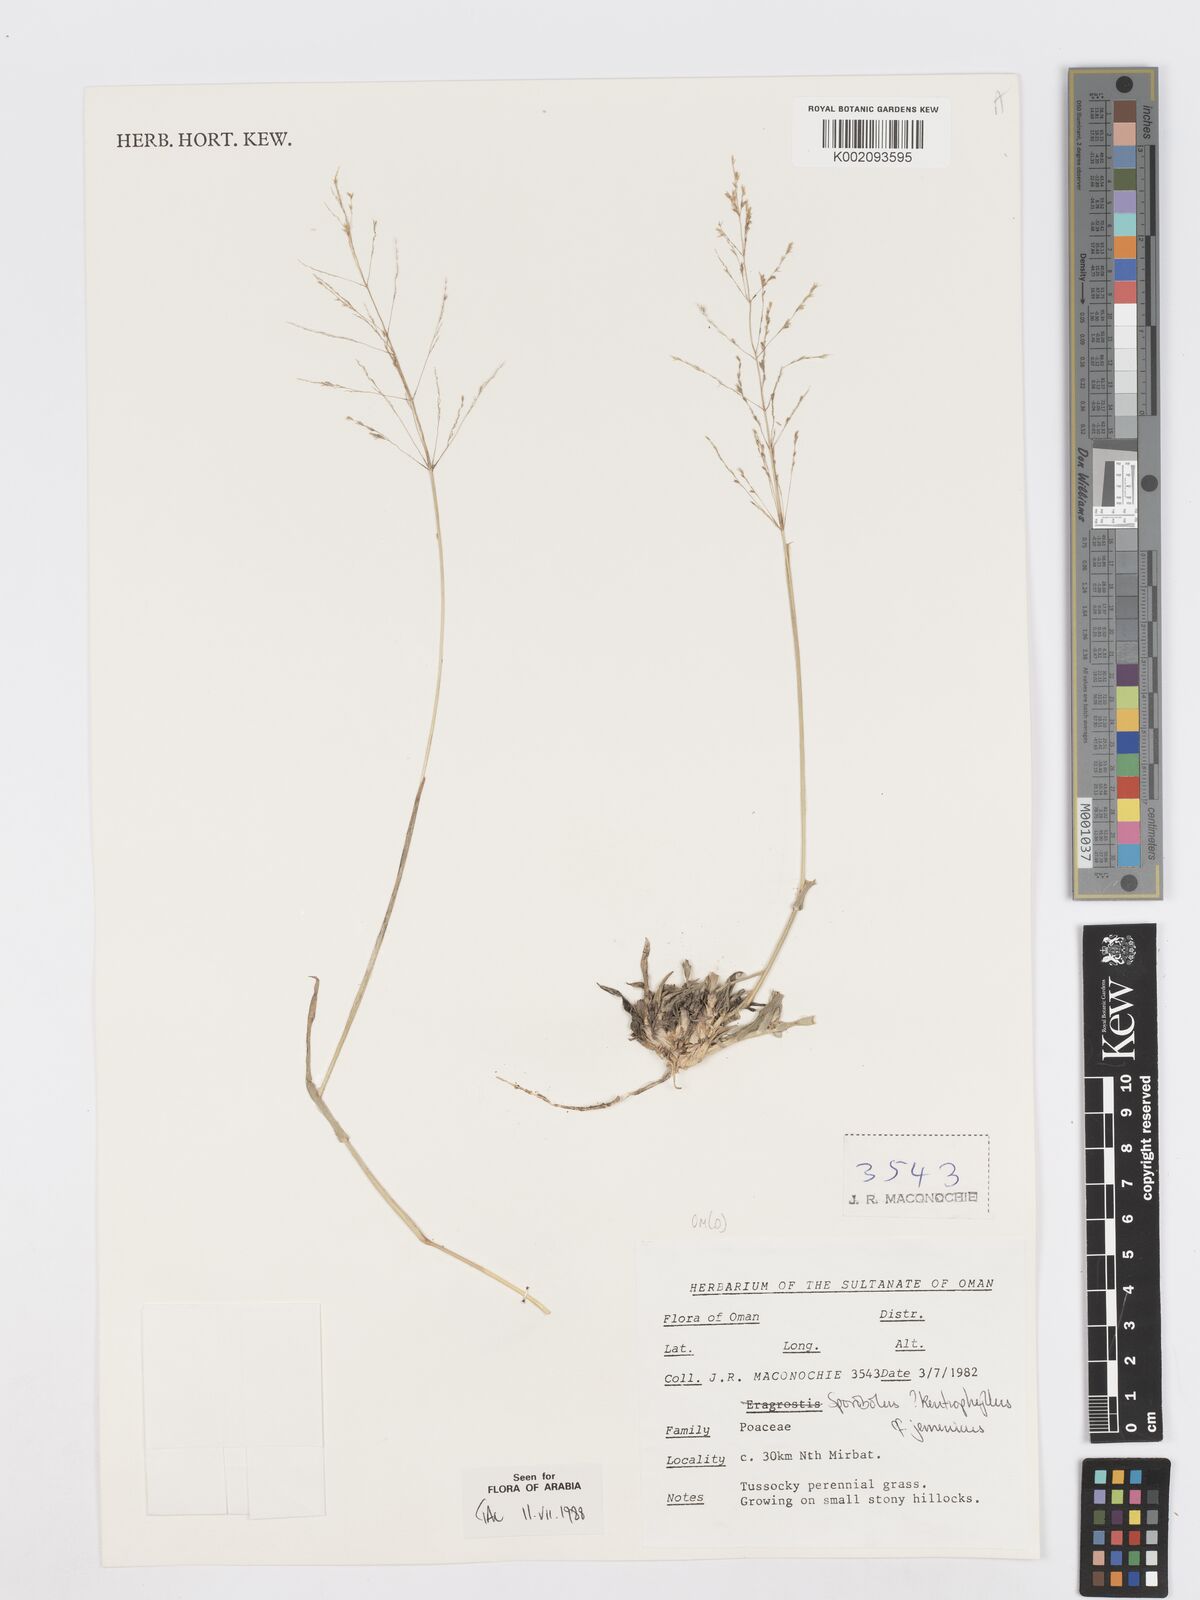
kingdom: Plantae
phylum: Tracheophyta
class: Liliopsida
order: Poales
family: Poaceae
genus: Sporobolus
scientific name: Sporobolus gloeoclados
